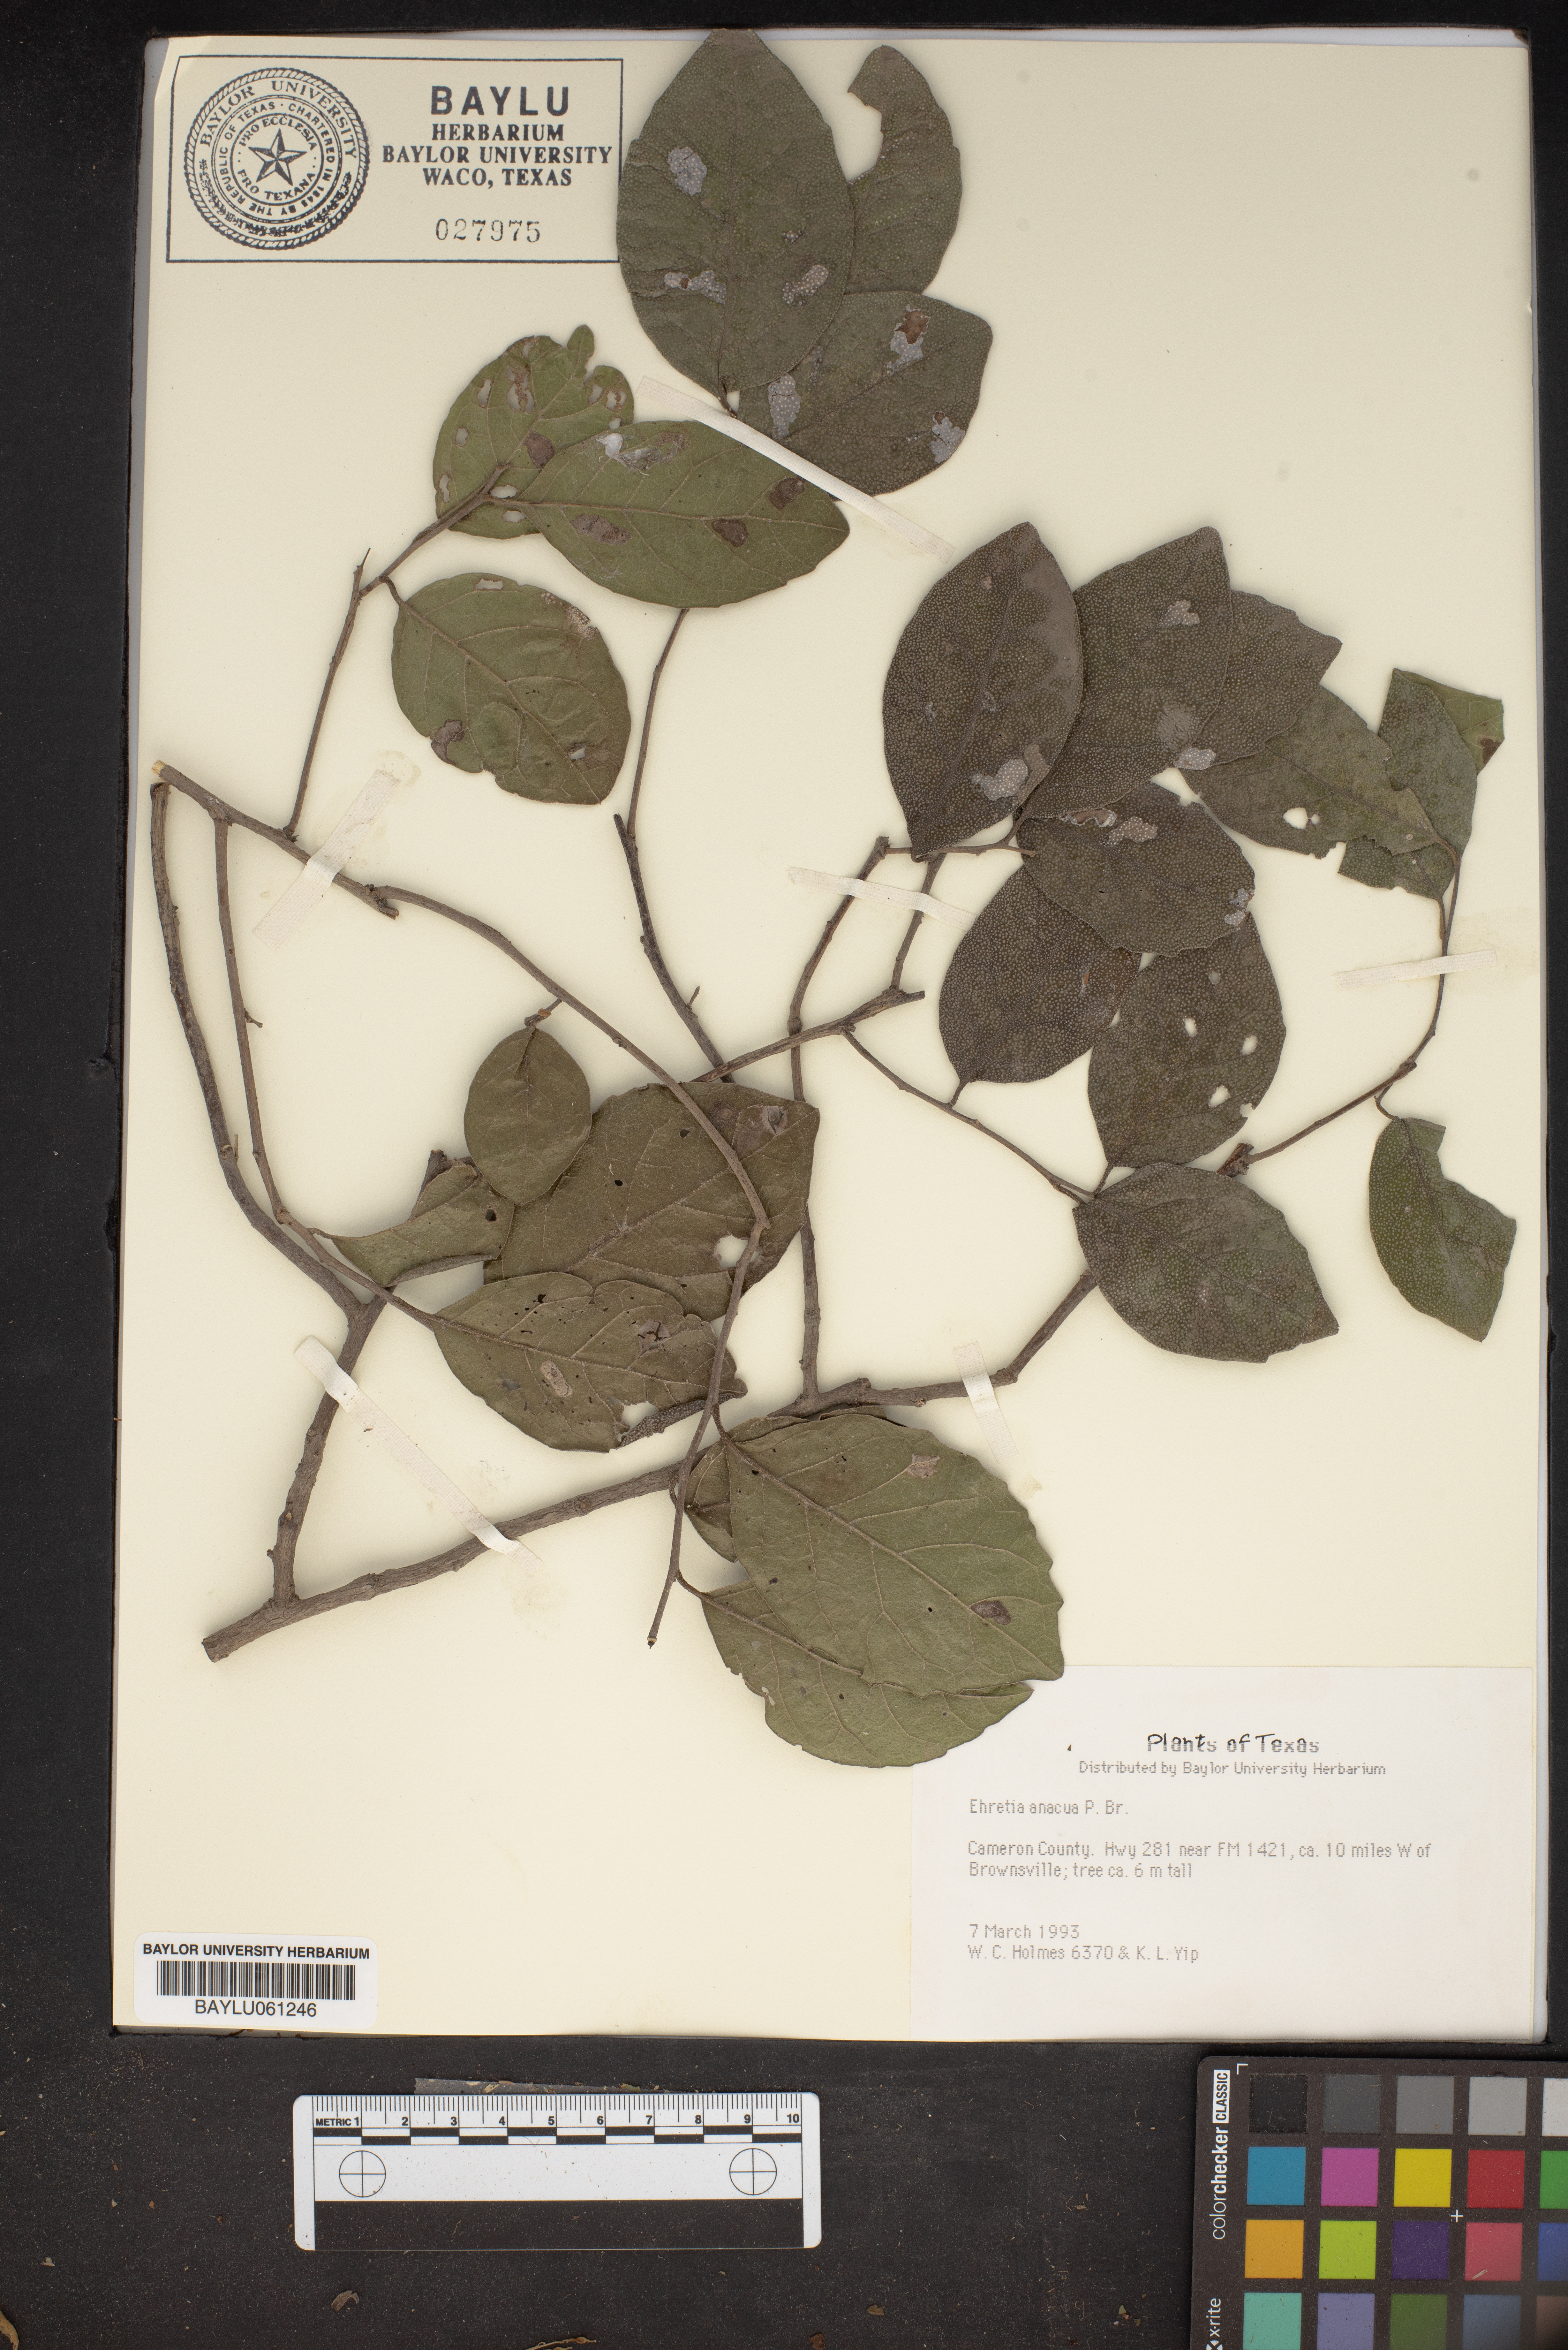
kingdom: Plantae
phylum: Tracheophyta
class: Magnoliopsida
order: Boraginales
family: Ehretiaceae
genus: Ehretia
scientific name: Ehretia anacua
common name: Sugarberry
